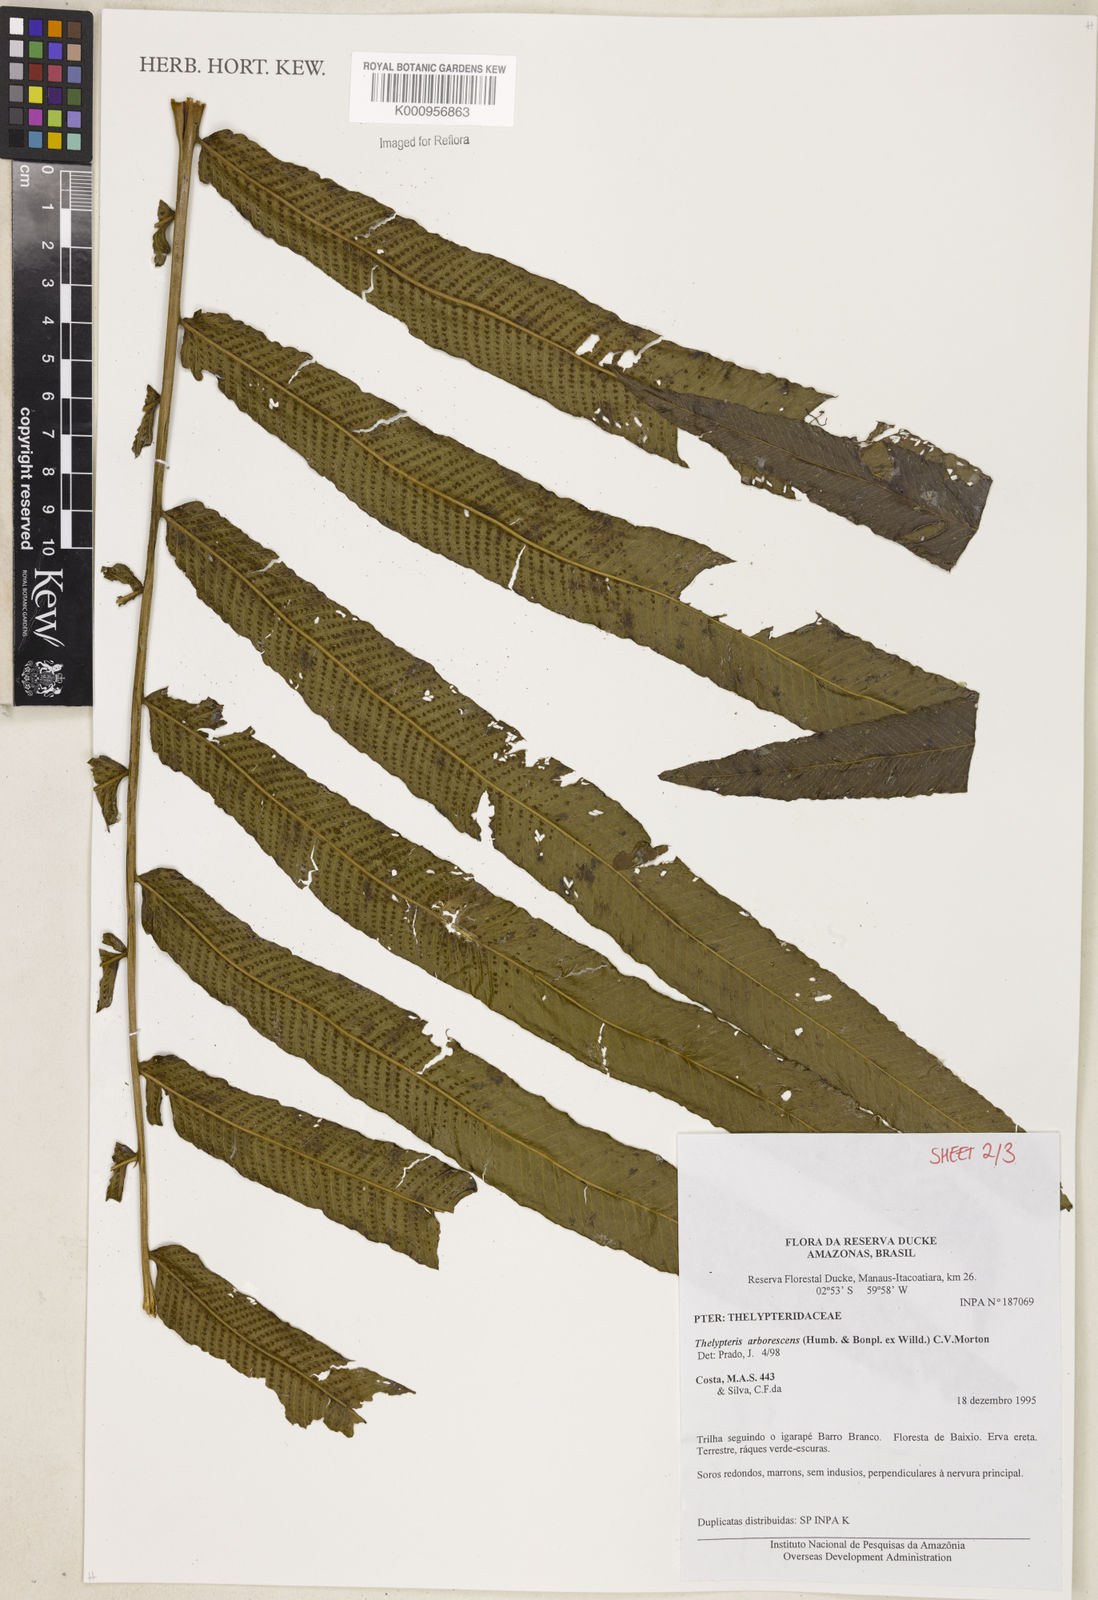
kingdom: Plantae
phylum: Tracheophyta
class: Polypodiopsida
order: Polypodiales
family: Thelypteridaceae
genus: Meniscium
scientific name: Meniscium arborescens
